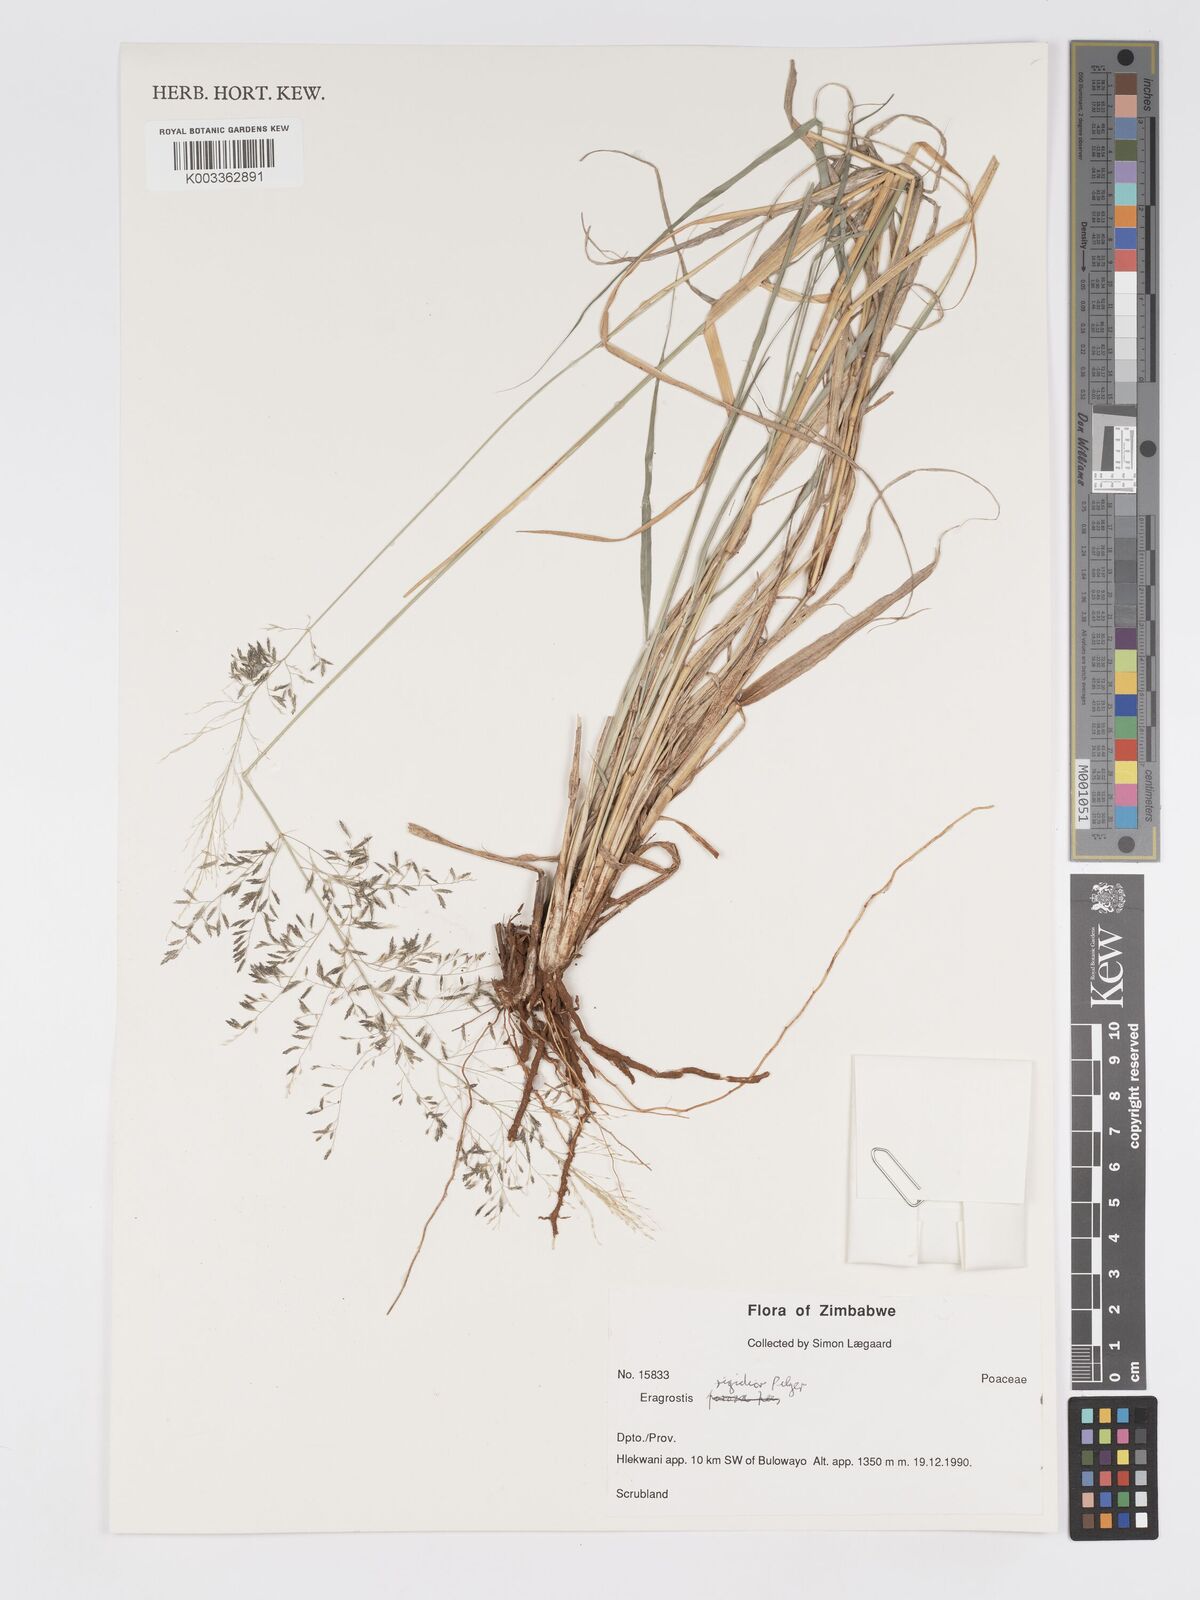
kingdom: Plantae
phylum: Tracheophyta
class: Liliopsida
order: Poales
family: Poaceae
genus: Eragrostis
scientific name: Eragrostis cylindriflora
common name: Cylinderflower lovegrass
